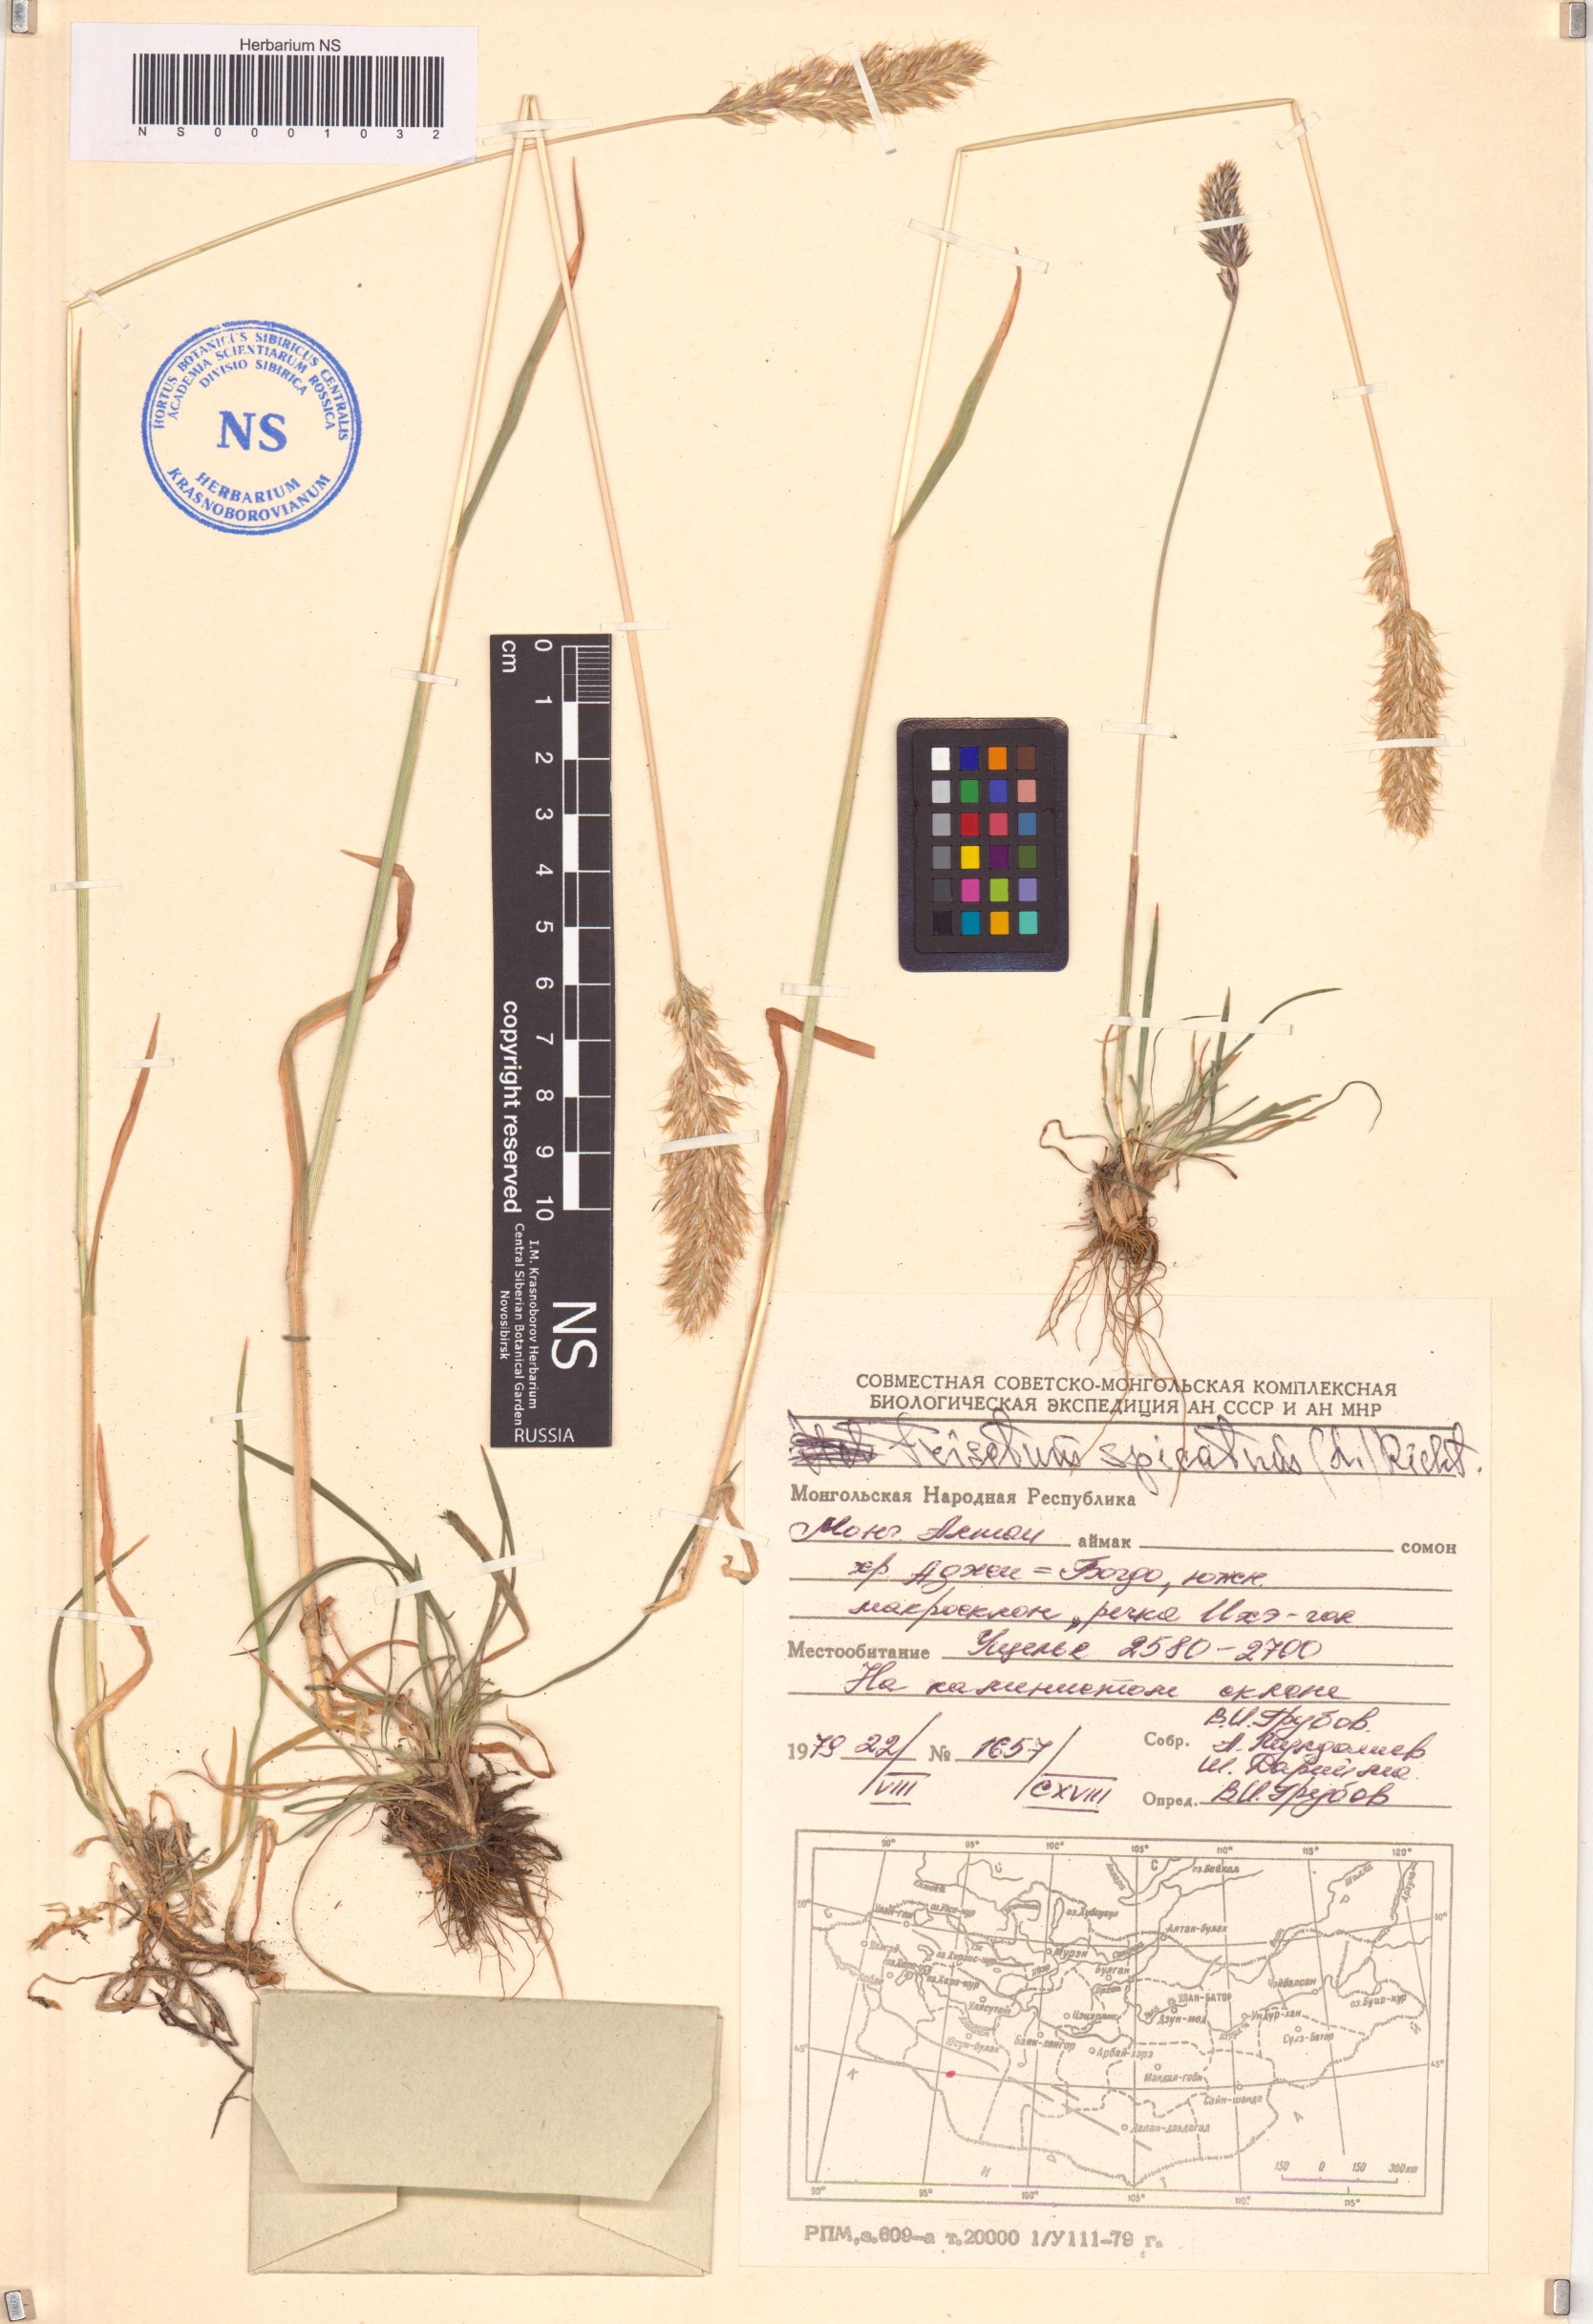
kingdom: Plantae
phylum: Tracheophyta
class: Liliopsida
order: Poales
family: Poaceae
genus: Koeleria
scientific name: Koeleria spicata
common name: Mountain trisetum
